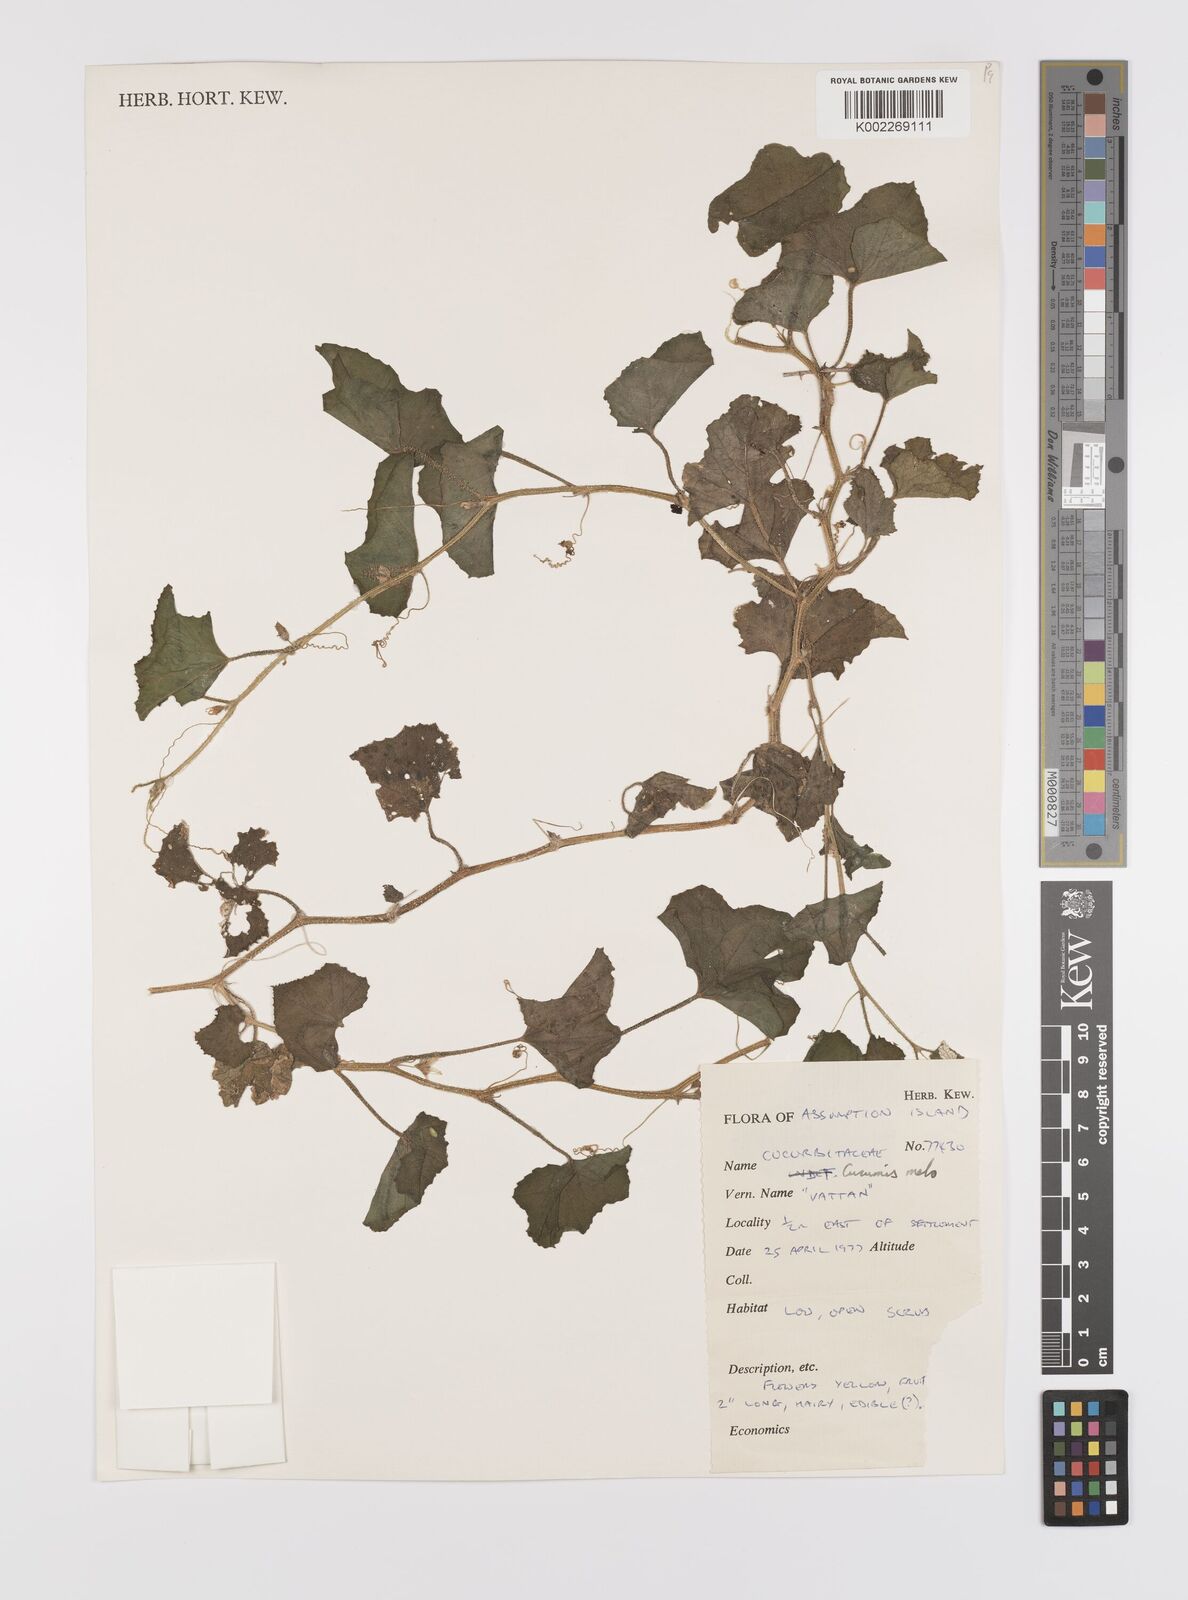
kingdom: Plantae
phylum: Tracheophyta
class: Magnoliopsida
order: Cucurbitales
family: Cucurbitaceae
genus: Cucumis
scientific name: Cucumis melo
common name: Melon
